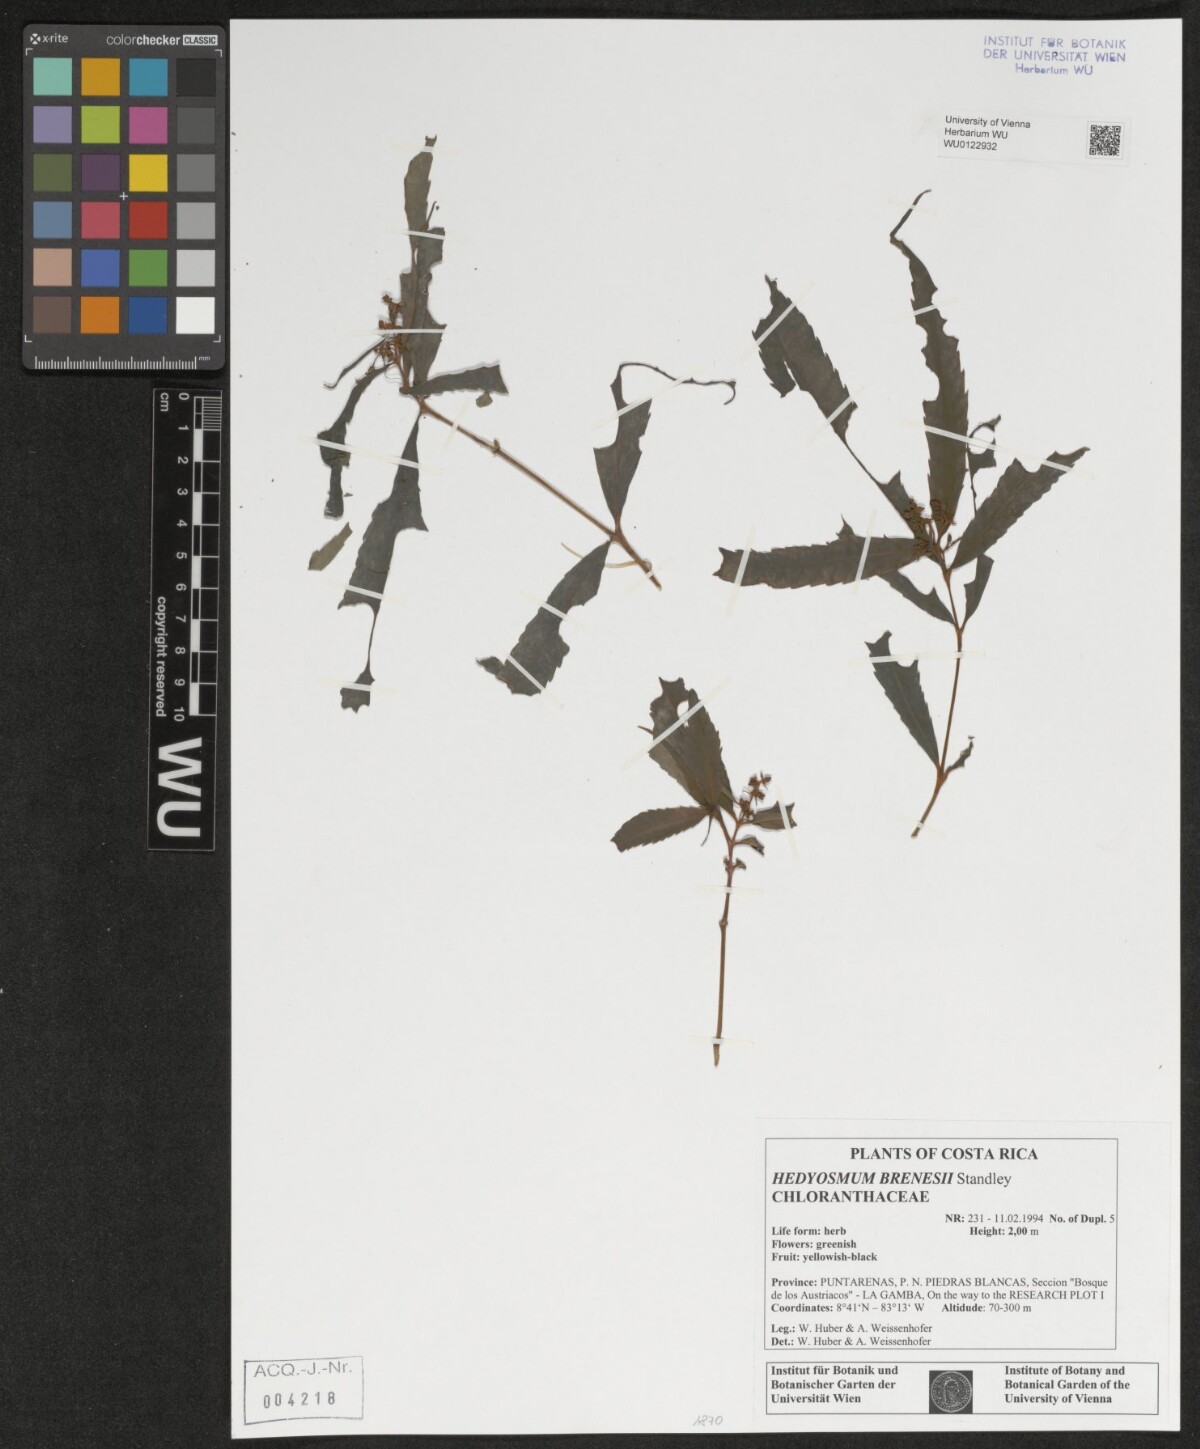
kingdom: Plantae
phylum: Tracheophyta
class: Magnoliopsida
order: Chloranthales
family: Chloranthaceae
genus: Hedyosmum
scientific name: Hedyosmum brenesii
